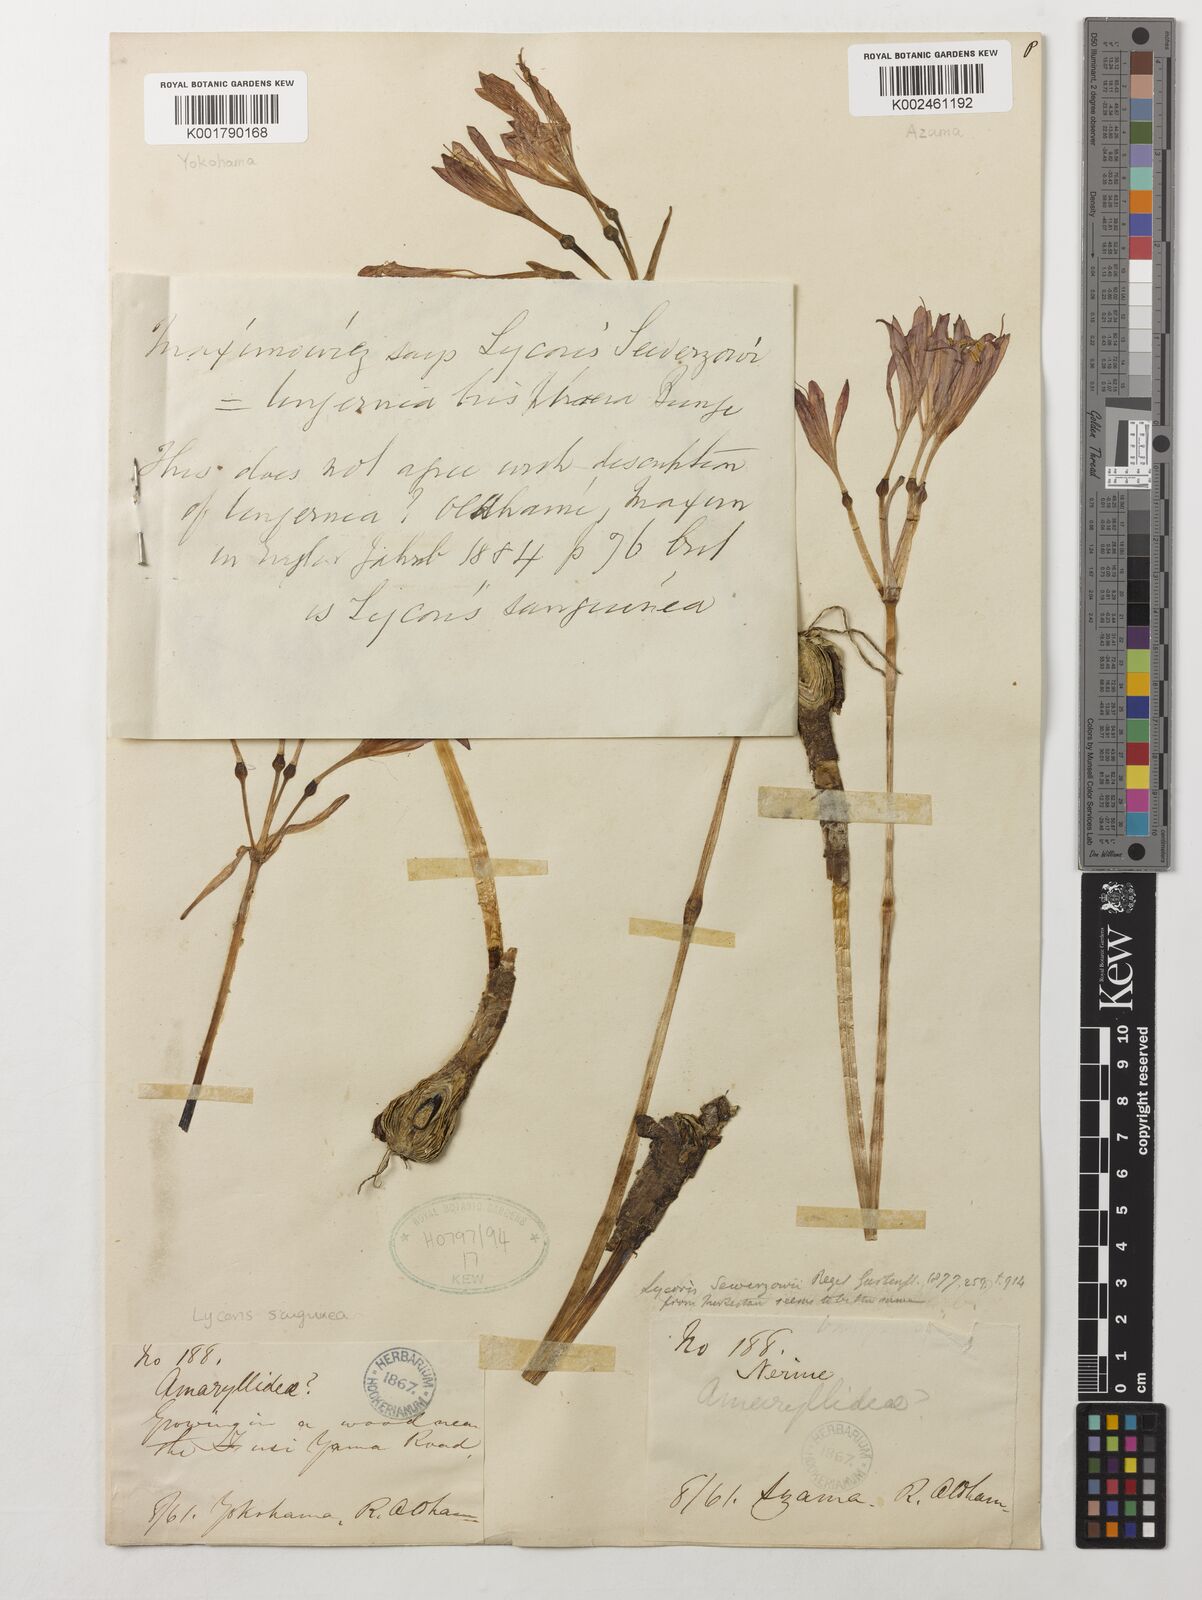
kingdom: Plantae
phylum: Tracheophyta
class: Liliopsida
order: Asparagales
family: Amaryllidaceae
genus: Lycoris
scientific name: Lycoris sanguinea
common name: Spider-lily
